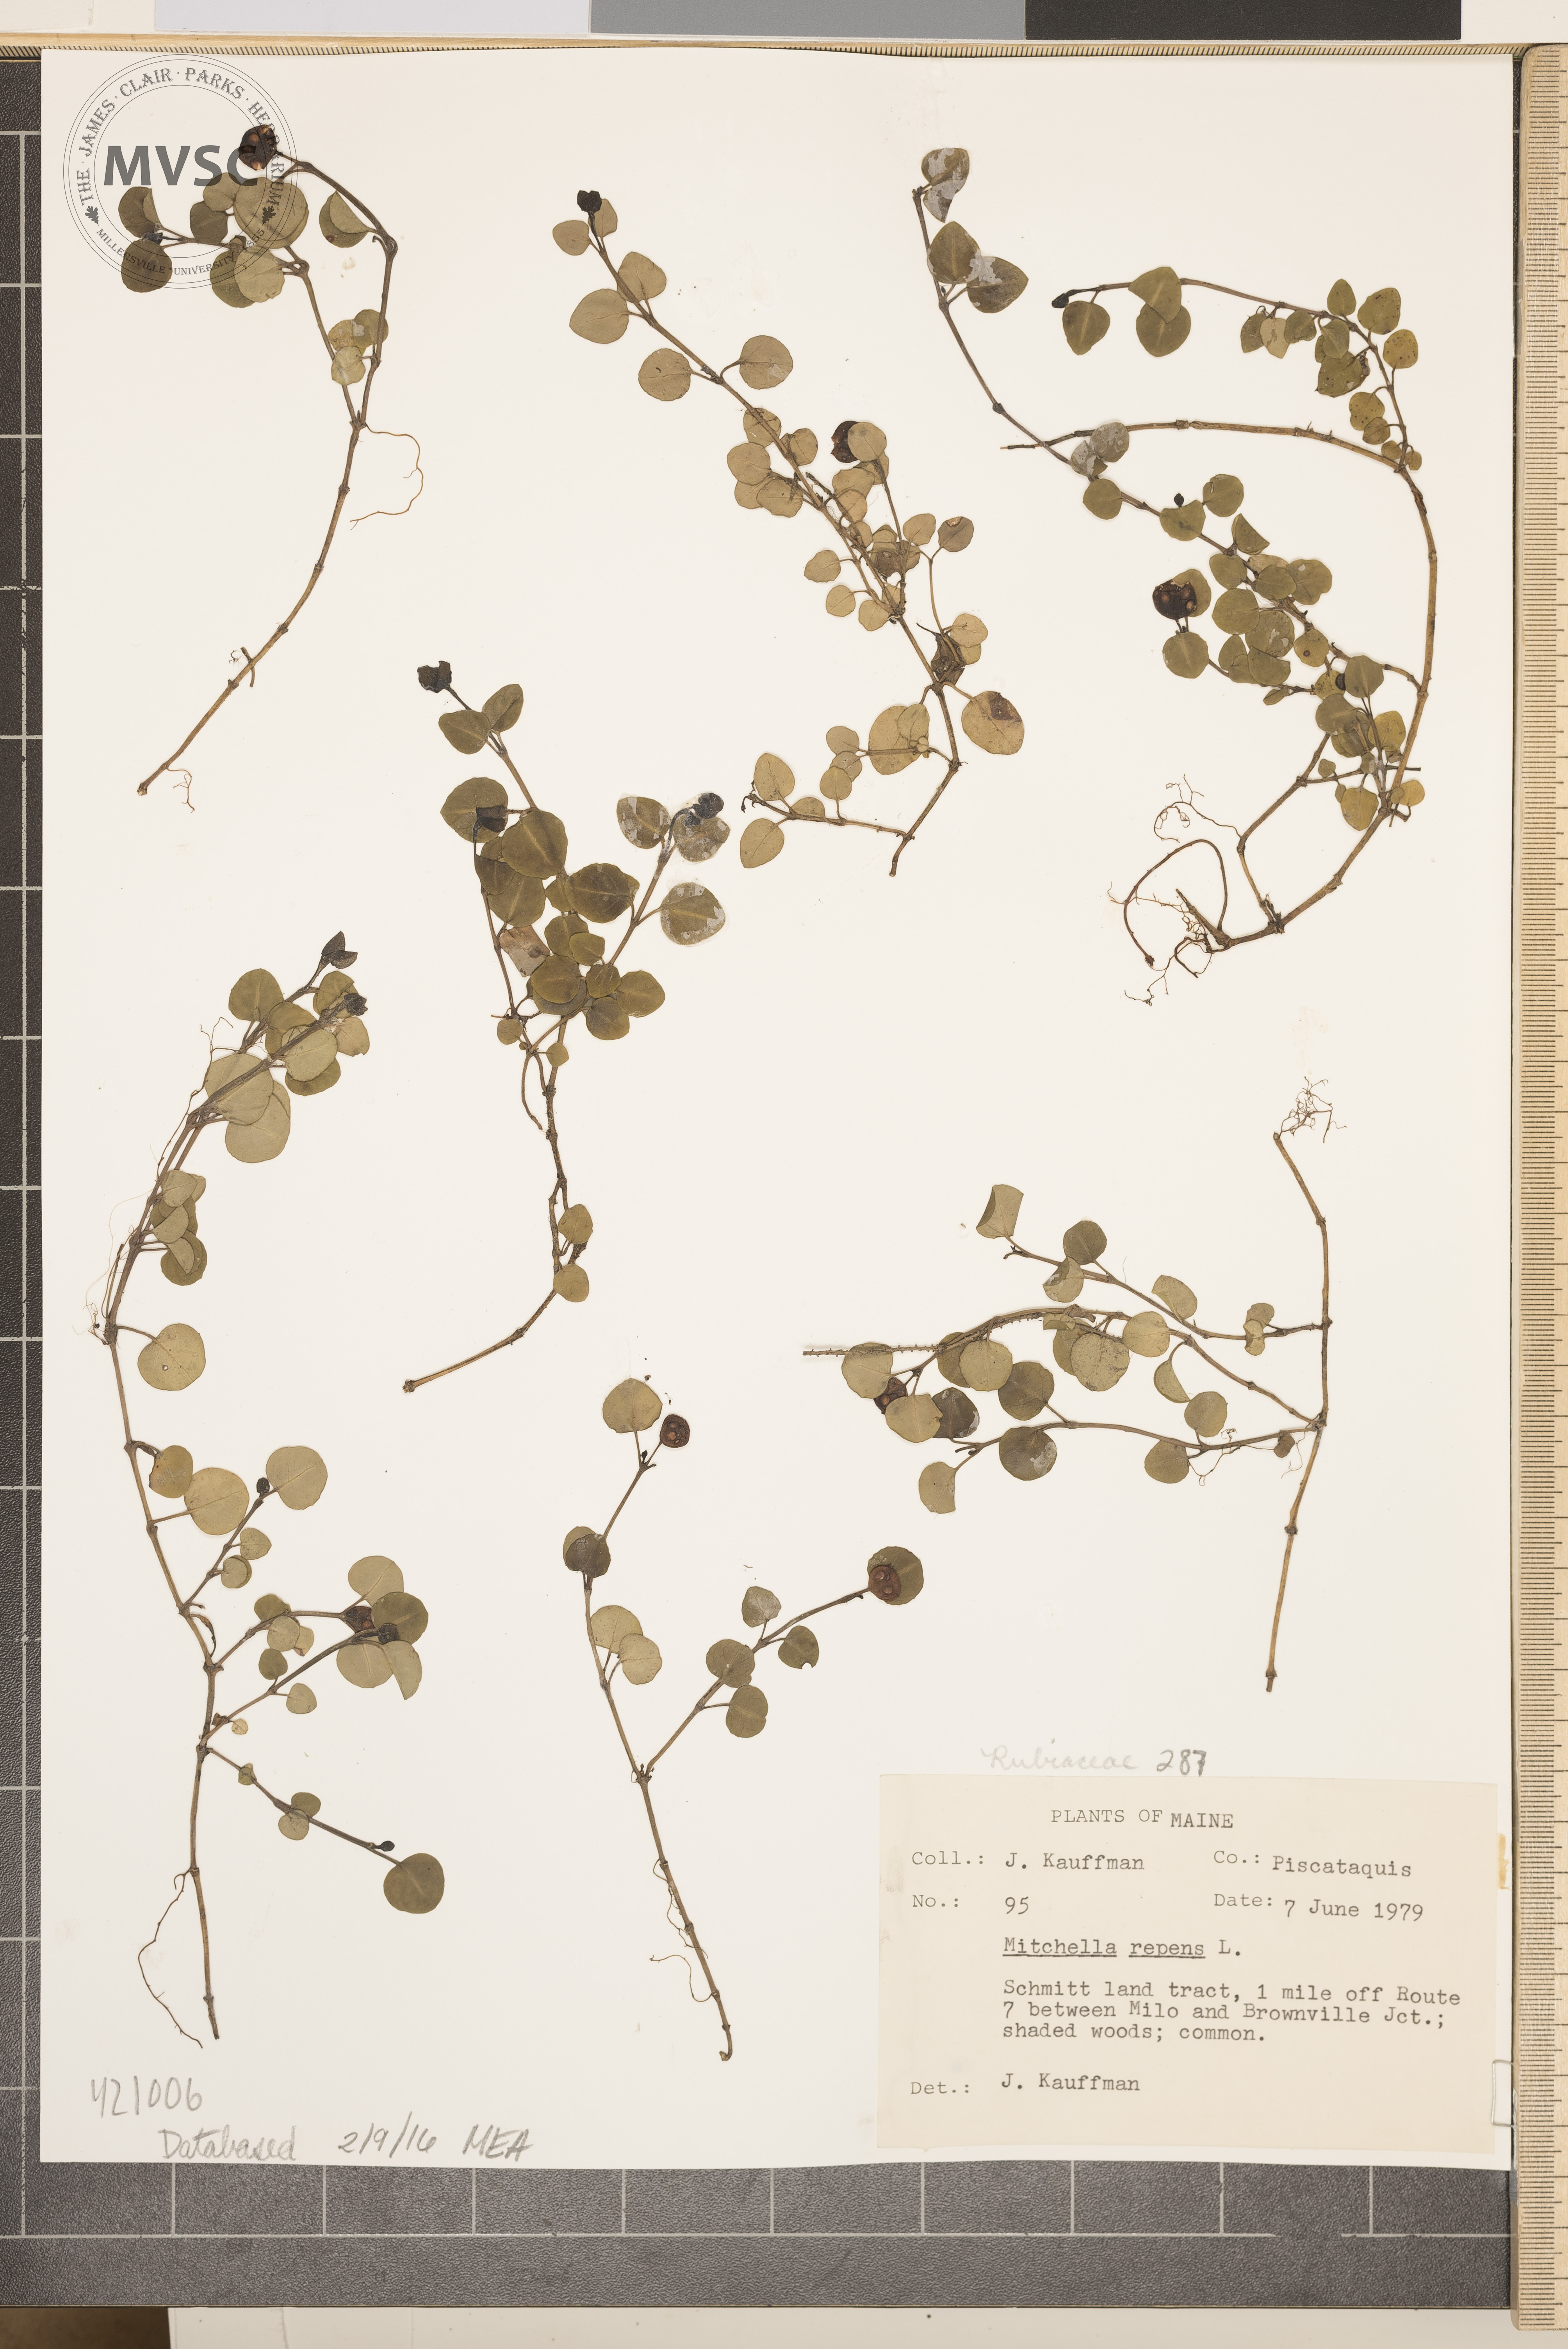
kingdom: Plantae
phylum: Tracheophyta
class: Magnoliopsida
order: Gentianales
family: Rubiaceae
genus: Mitchella
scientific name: Mitchella repens
